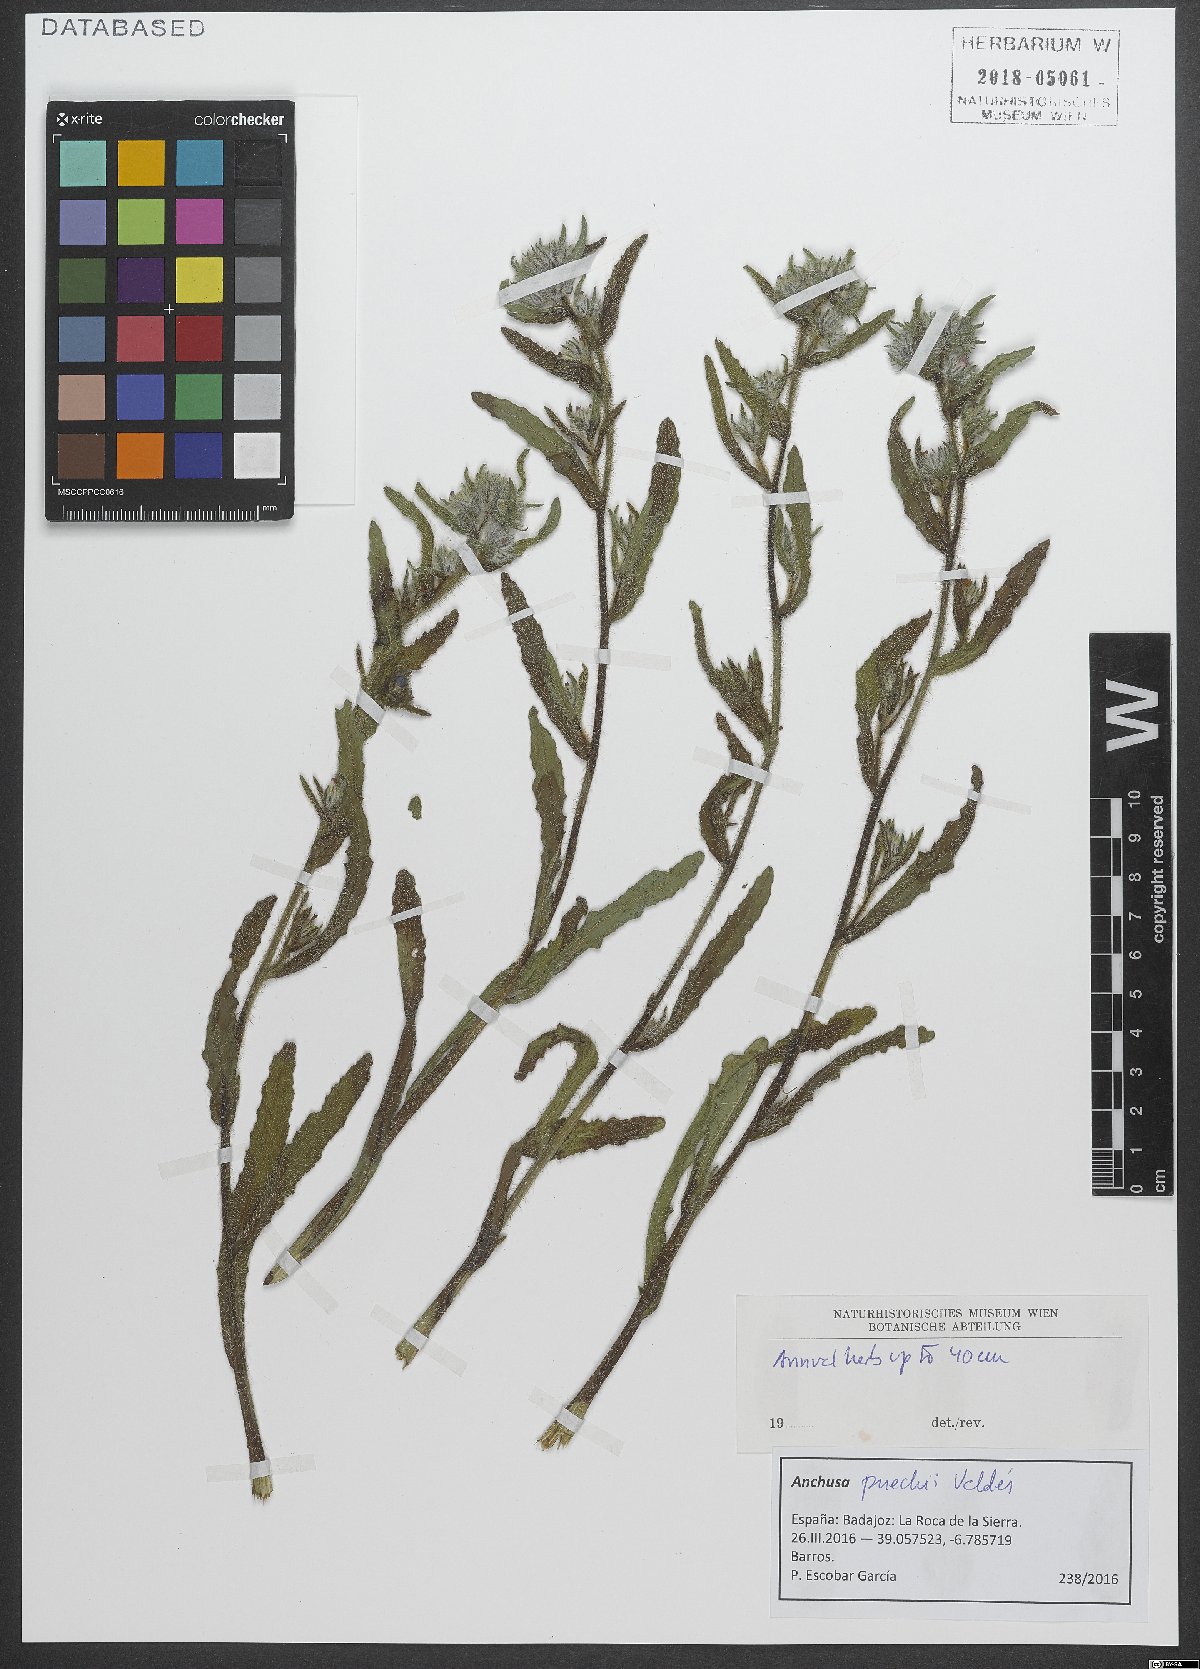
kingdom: Plantae
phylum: Tracheophyta
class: Magnoliopsida
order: Boraginales
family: Boraginaceae
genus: Anchusa
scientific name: Anchusa puechii
